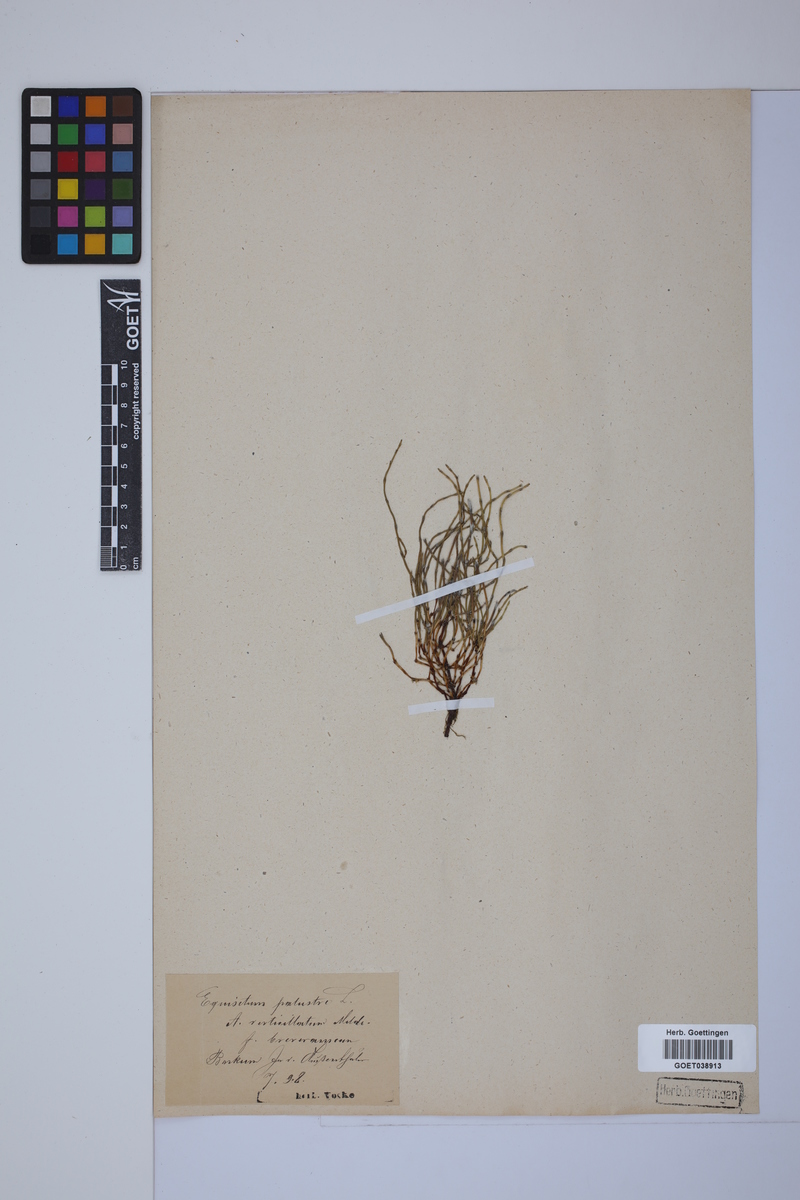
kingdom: Plantae
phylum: Tracheophyta
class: Polypodiopsida
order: Equisetales
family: Equisetaceae
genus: Equisetum
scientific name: Equisetum palustre
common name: Marsh horsetail
